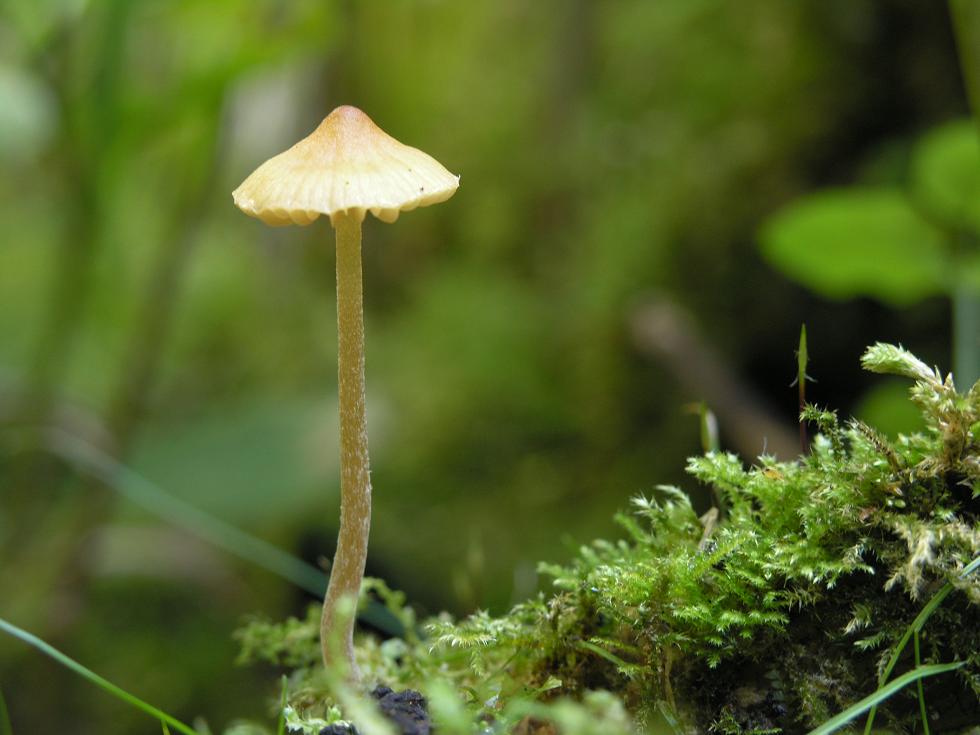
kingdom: Fungi
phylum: Basidiomycota
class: Agaricomycetes
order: Agaricales
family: Hymenogastraceae
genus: Galerina
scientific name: Galerina clavata
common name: kær-hjelmhat
